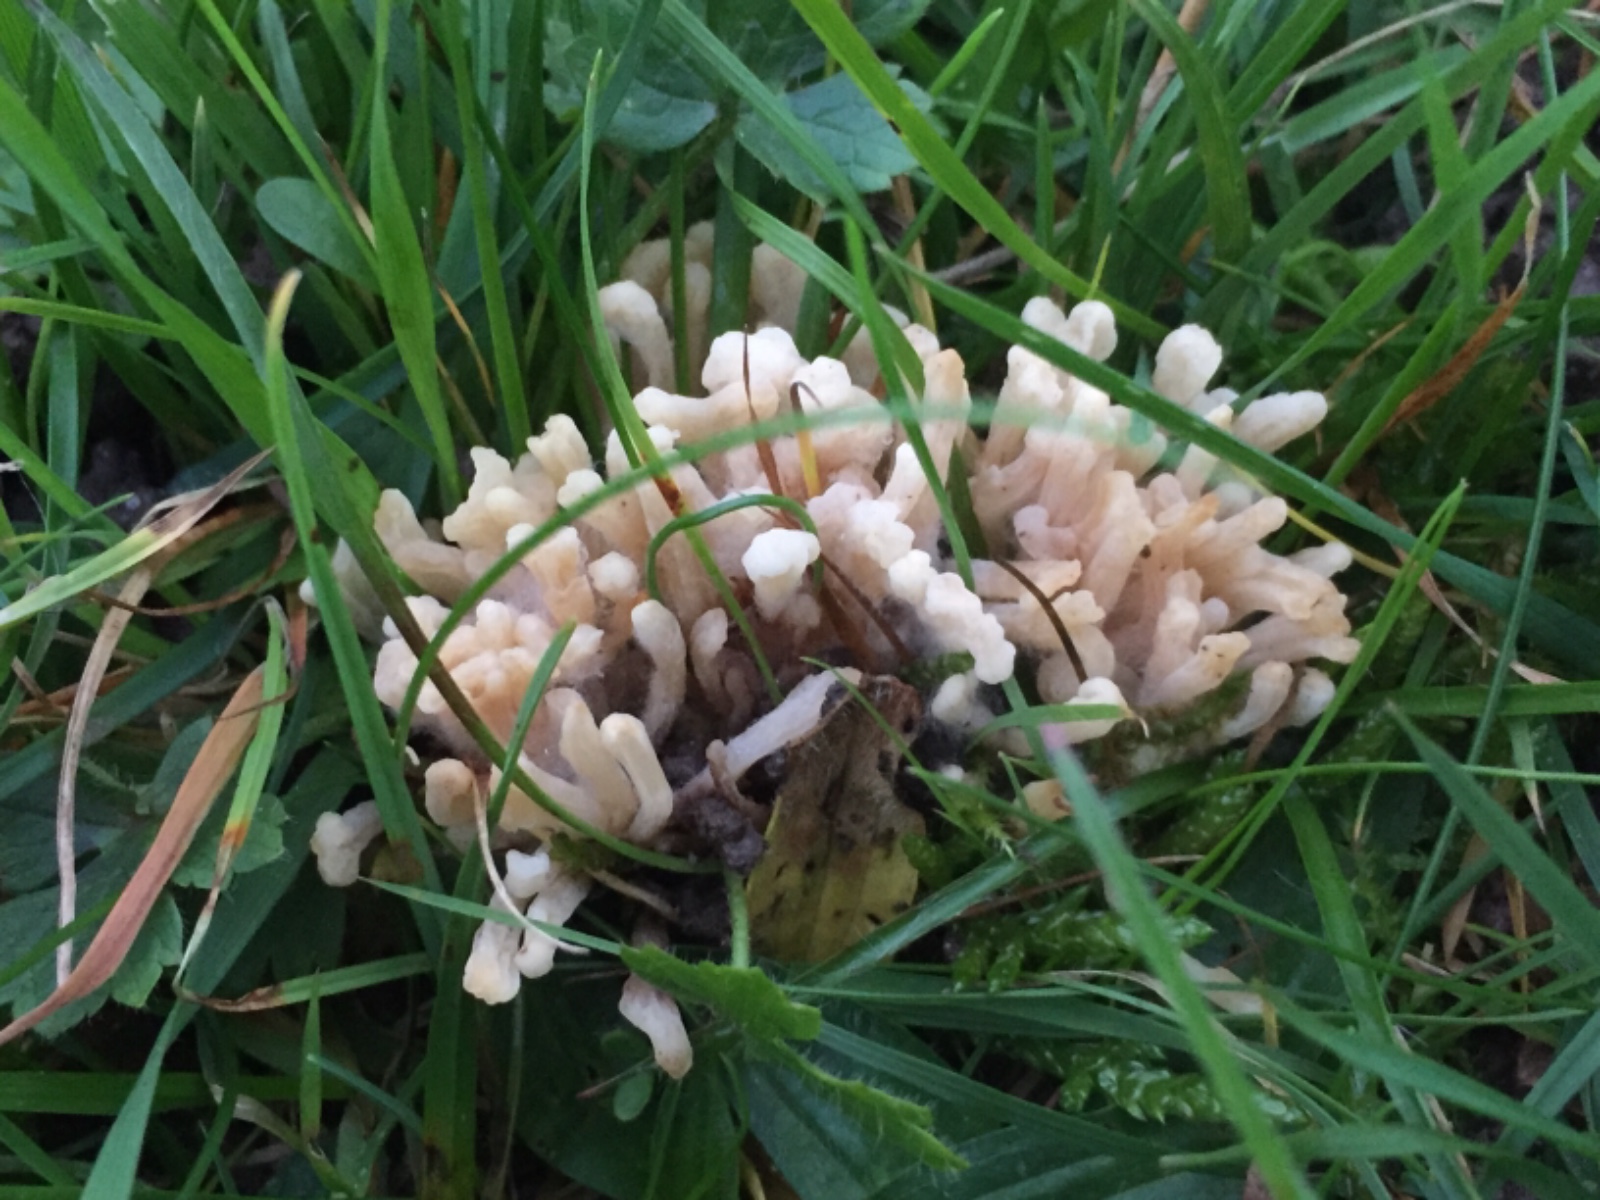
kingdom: Fungi
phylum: Basidiomycota
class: Agaricomycetes
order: Agaricales
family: Clavariaceae
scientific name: Clavariaceae
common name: køllesvampfamilien
